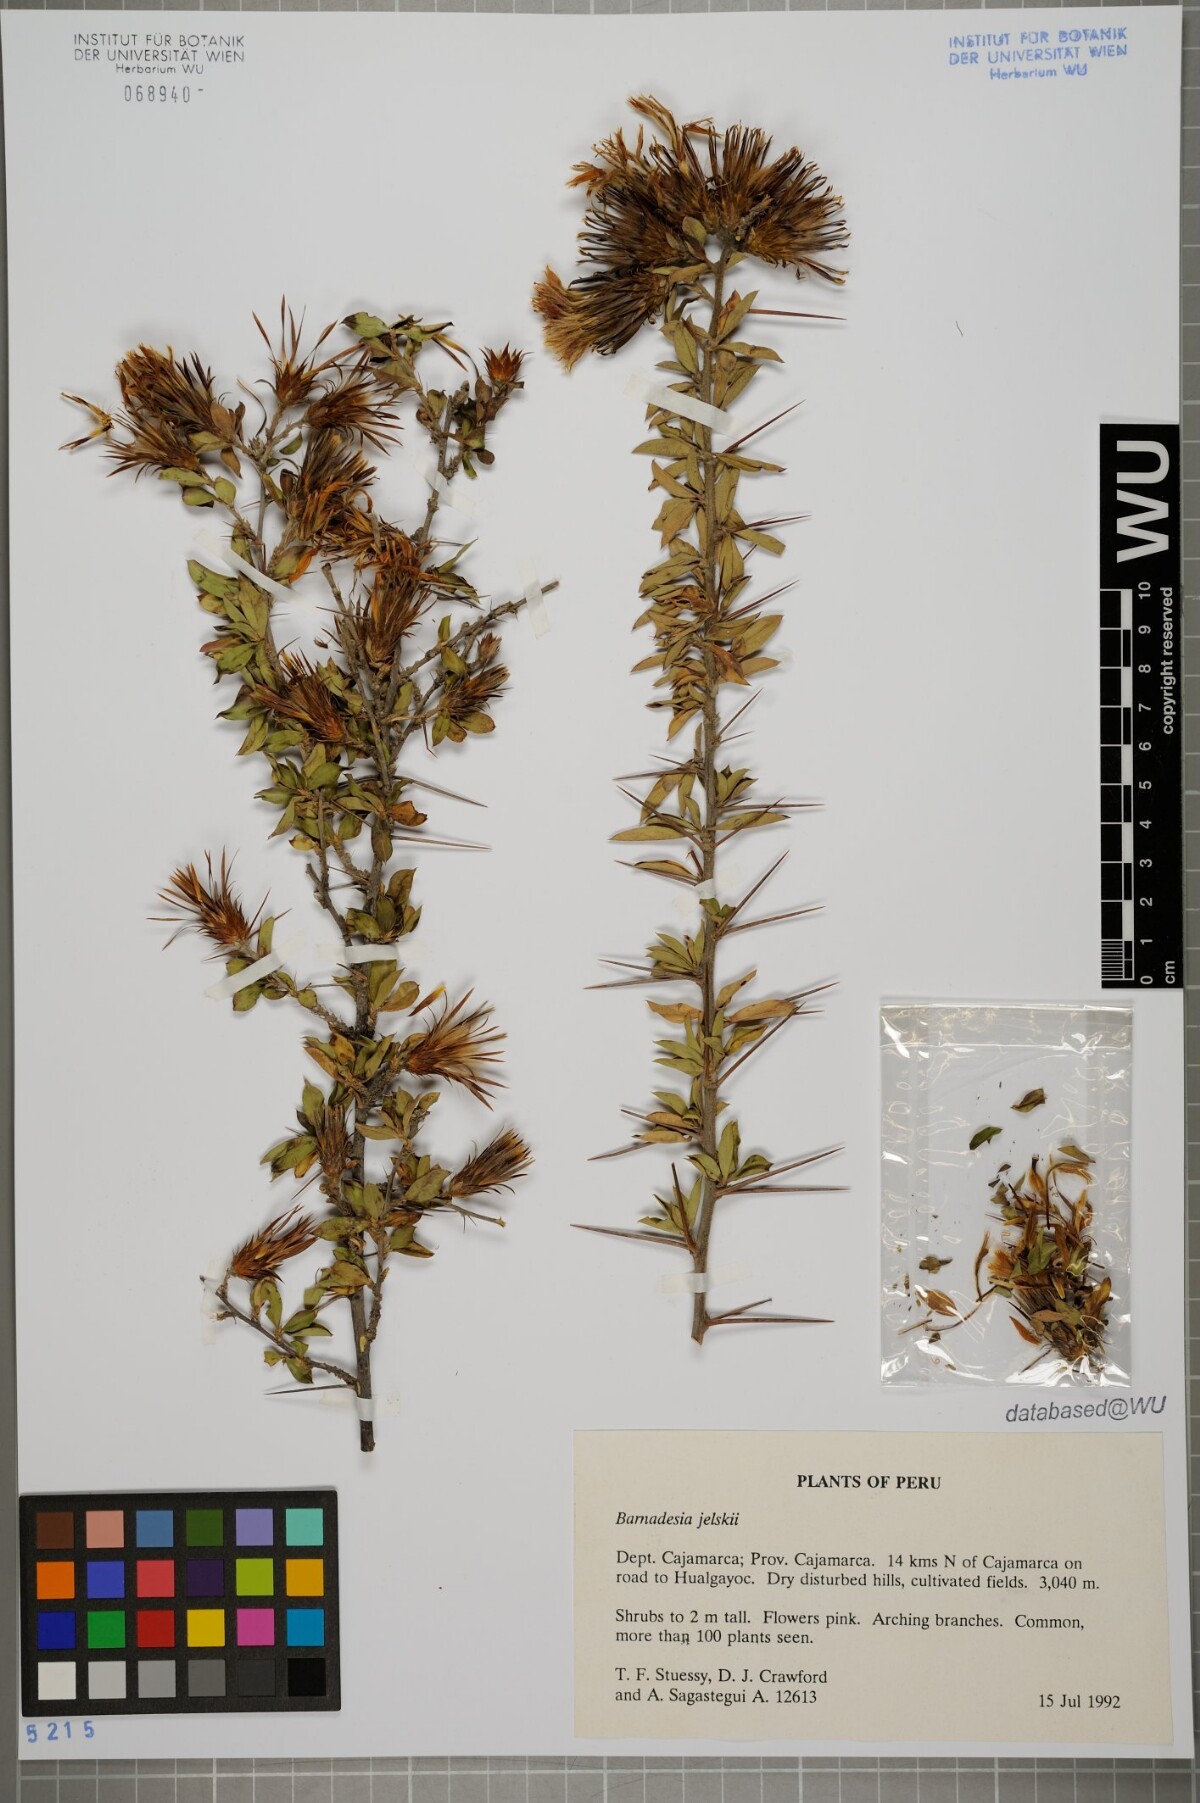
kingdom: Plantae
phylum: Tracheophyta
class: Magnoliopsida
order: Asterales
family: Asteraceae
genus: Barnadesia
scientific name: Barnadesia jelskii
